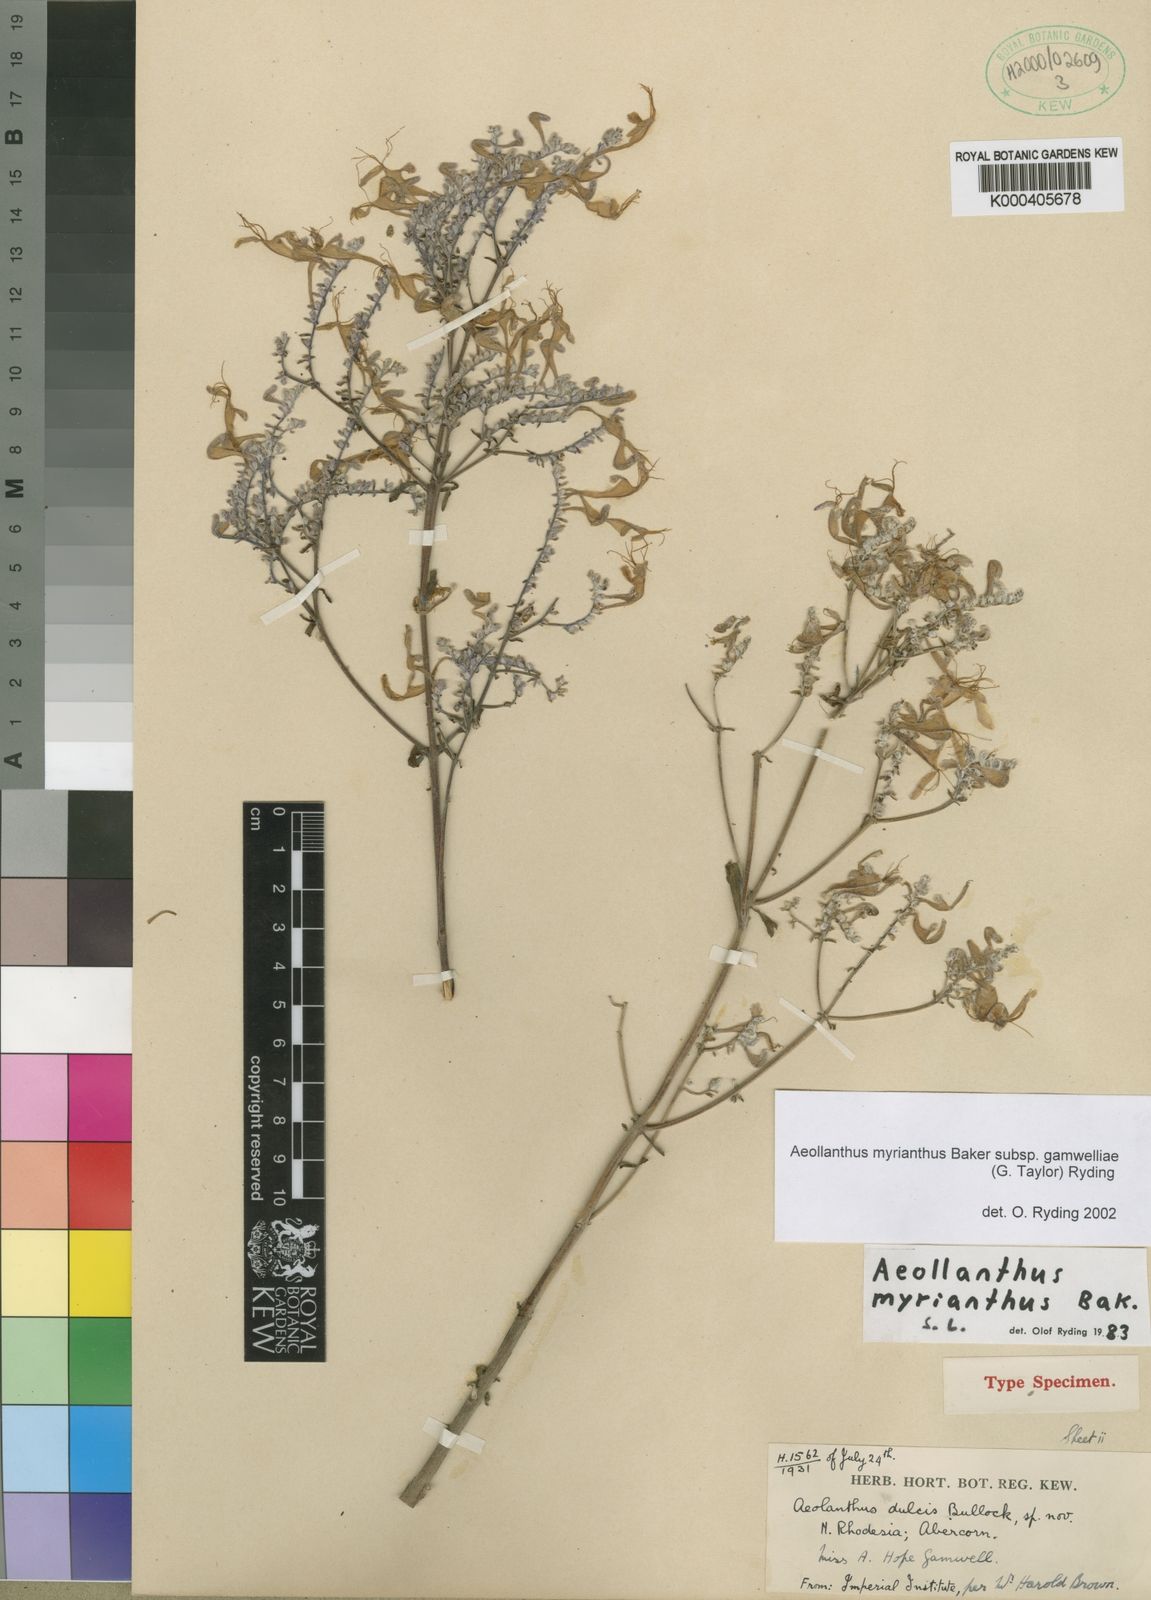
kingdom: Plantae
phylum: Tracheophyta
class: Magnoliopsida
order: Lamiales
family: Lamiaceae
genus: Aeollanthus
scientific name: Aeollanthus myrianthus
